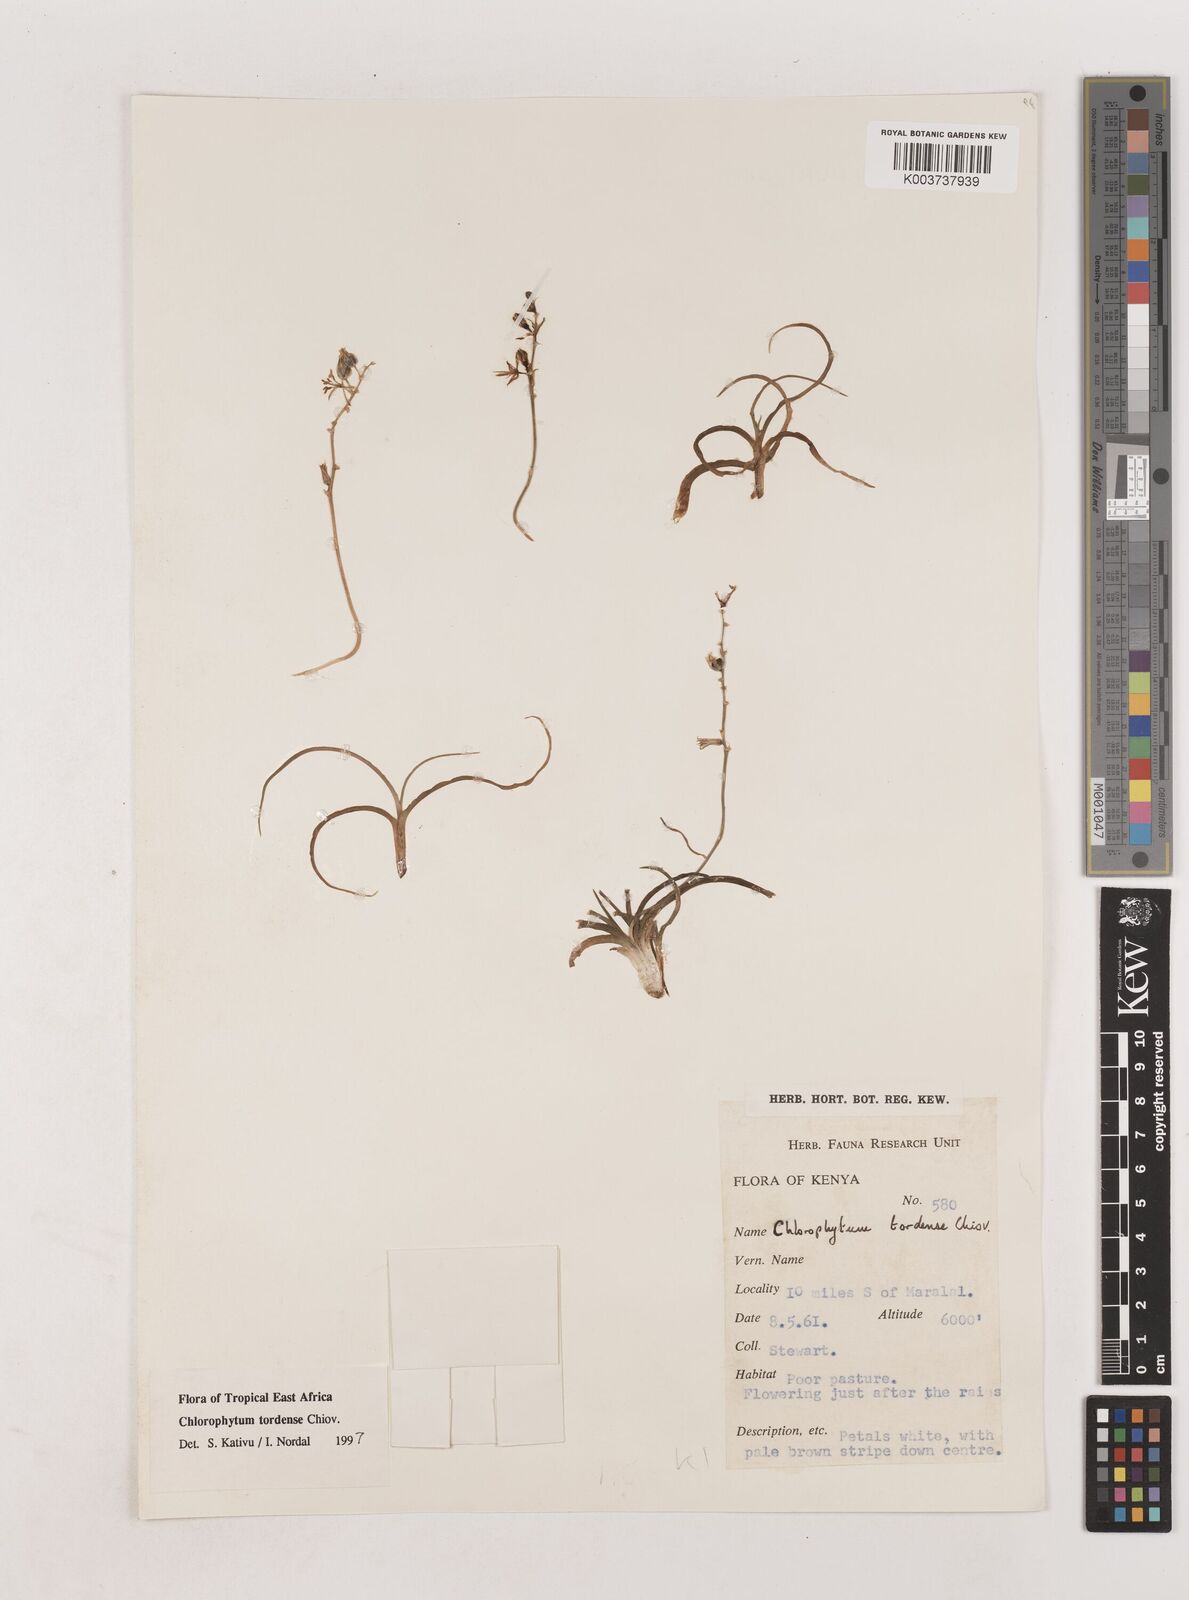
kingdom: Plantae
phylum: Tracheophyta
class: Liliopsida
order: Asparagales
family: Asparagaceae
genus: Chlorophytum
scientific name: Chlorophytum tordense
